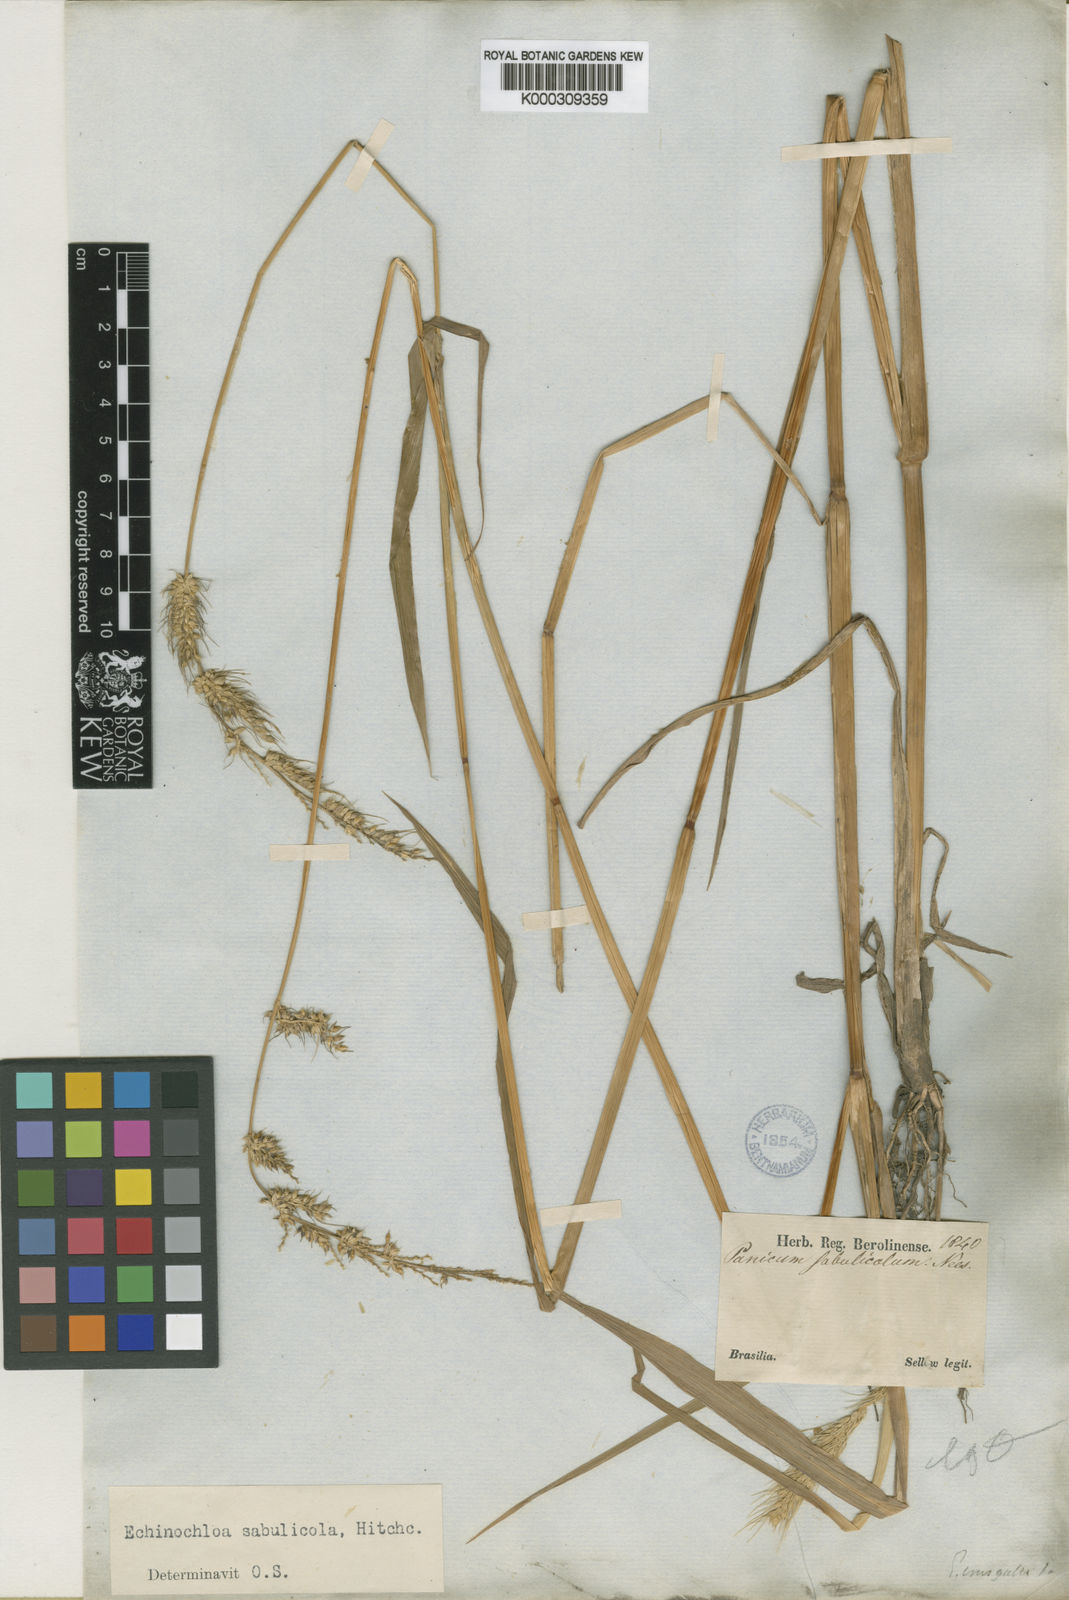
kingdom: Plantae
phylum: Tracheophyta
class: Liliopsida
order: Poales
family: Poaceae
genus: Echinochloa
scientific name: Echinochloa crus-pavonis
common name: Gulf cockspur grass
